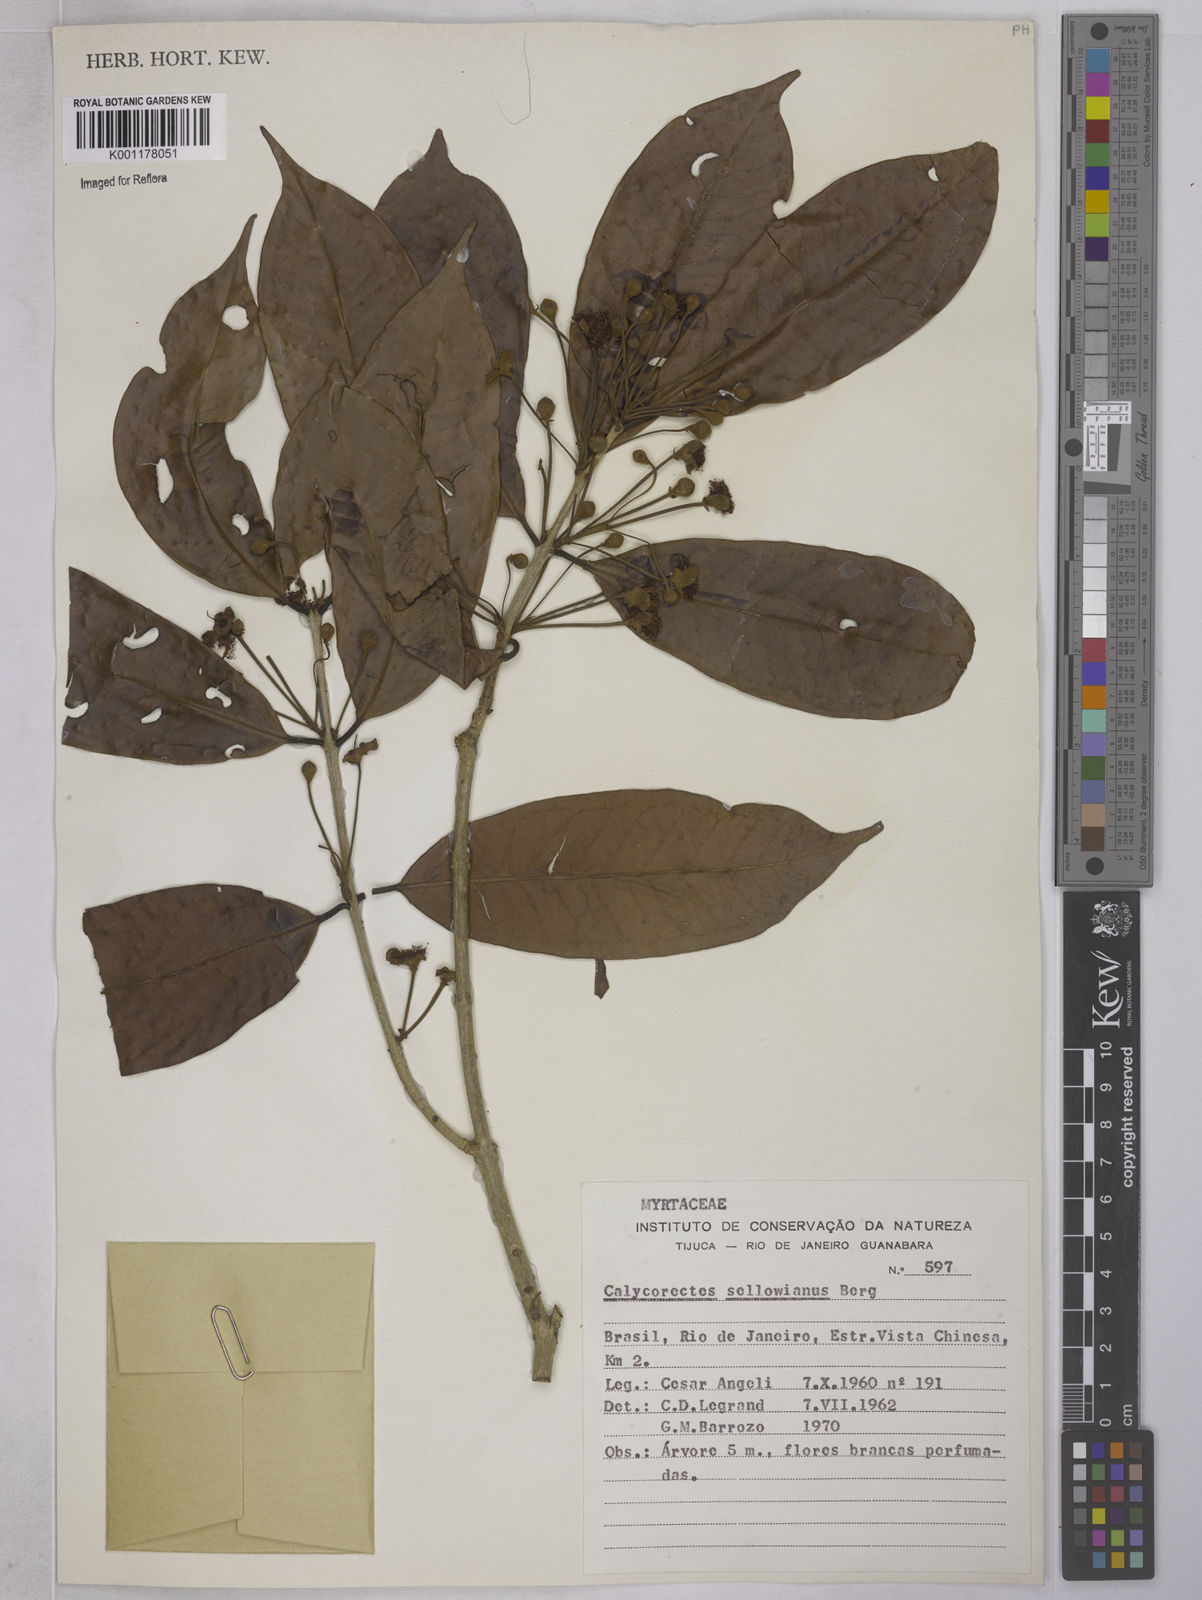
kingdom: Plantae
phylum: Tracheophyta
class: Magnoliopsida
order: Myrtales
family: Myrtaceae
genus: Eugenia
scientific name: Eugenia brevistyla
